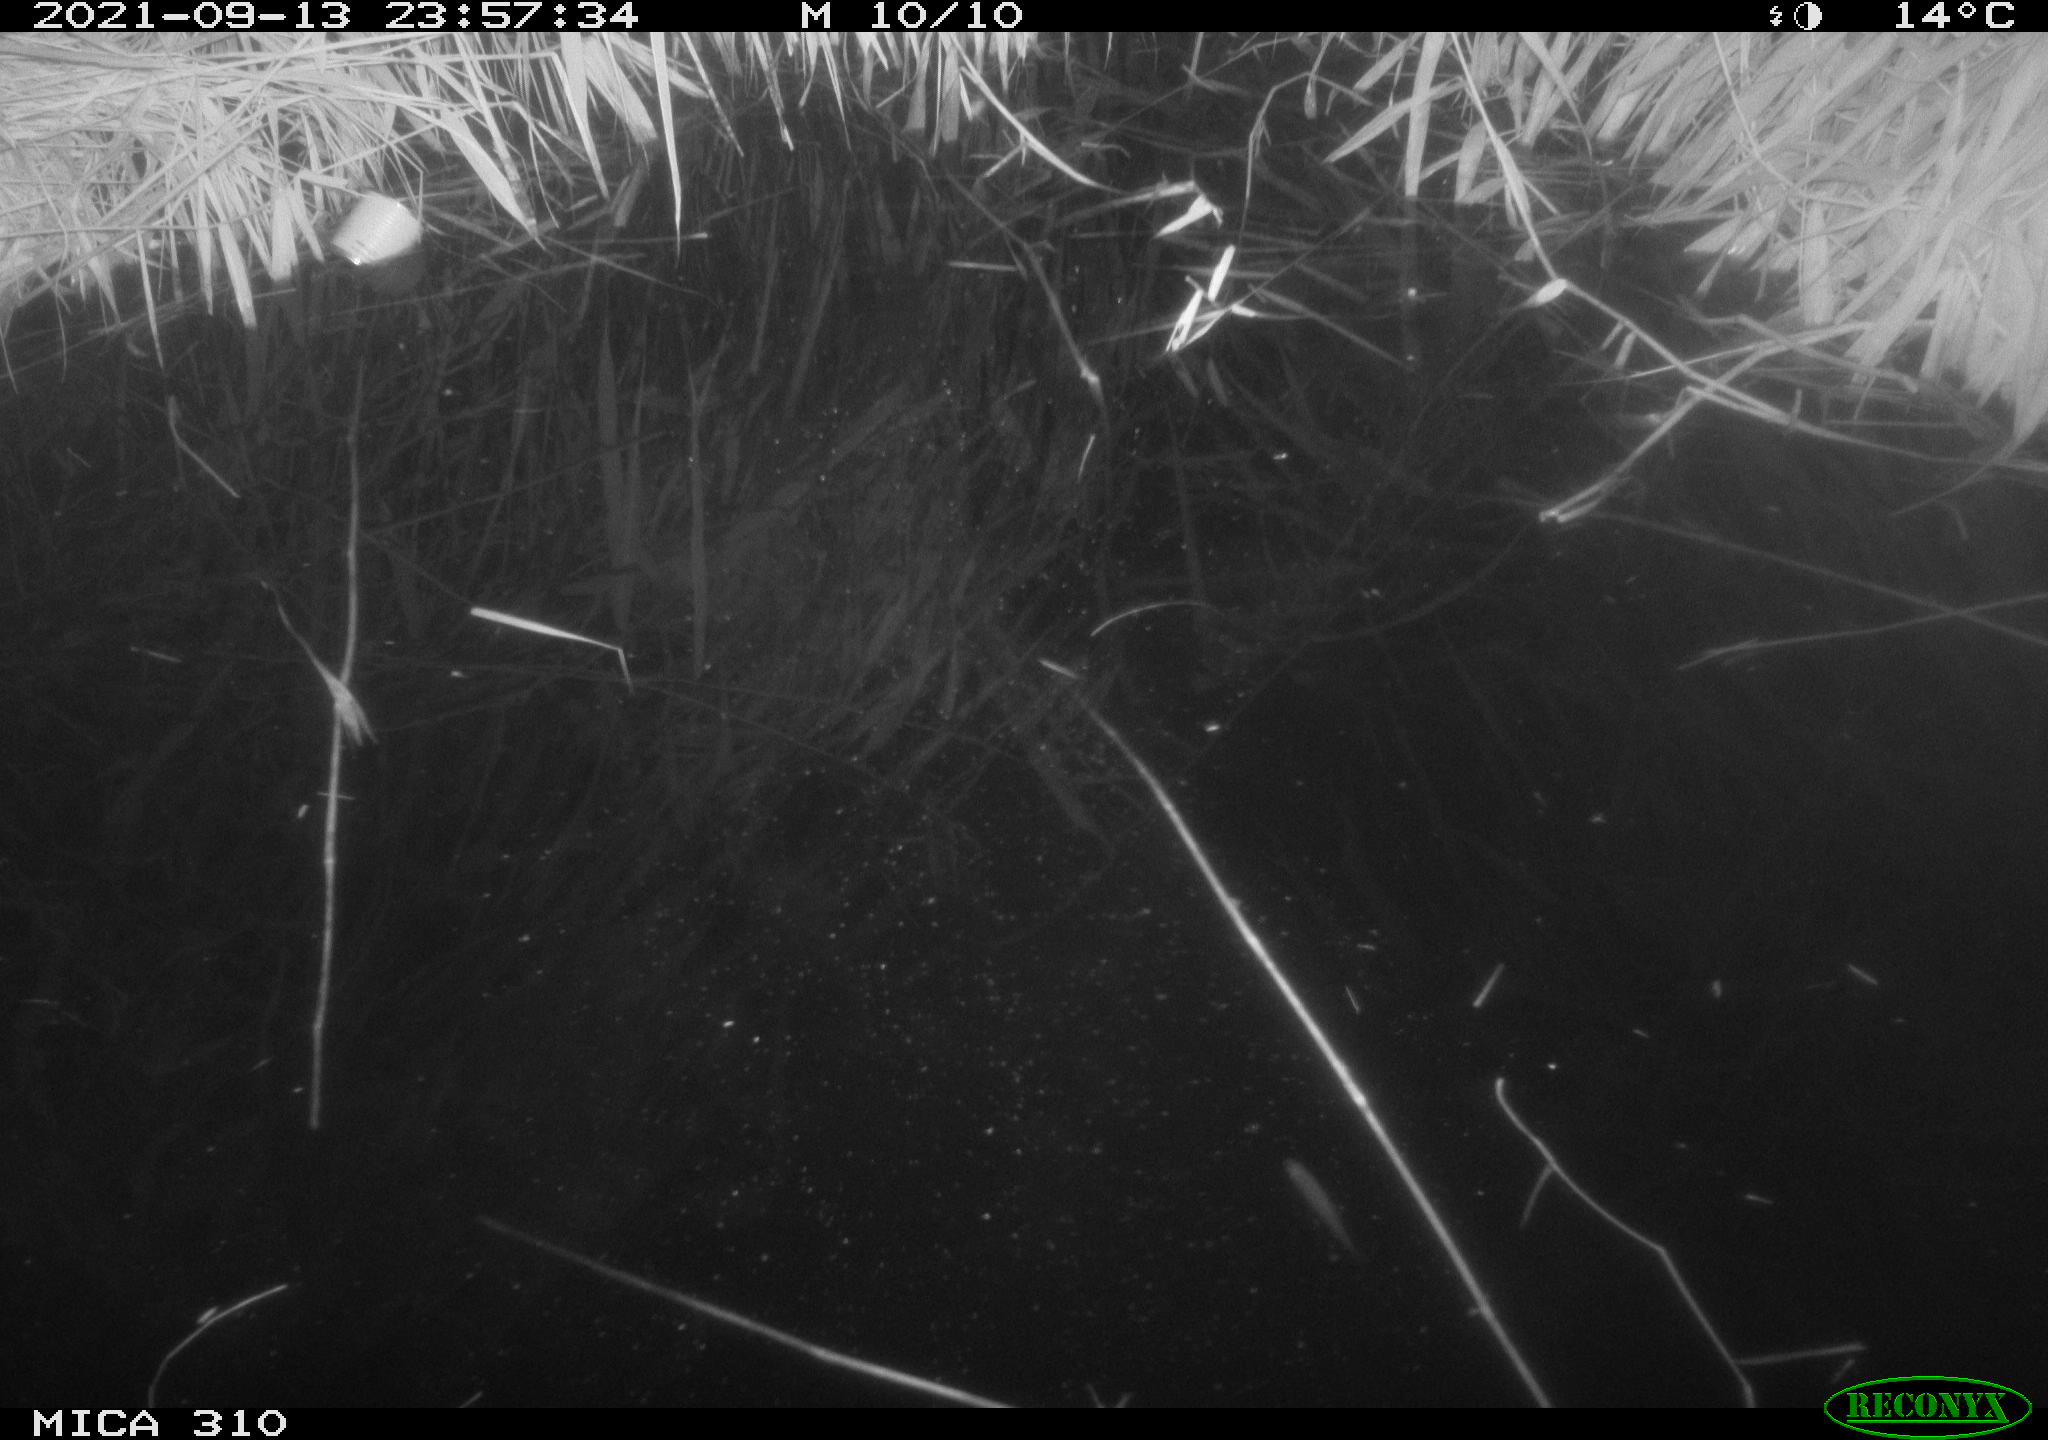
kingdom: Animalia
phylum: Chordata
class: Aves
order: Anseriformes
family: Anatidae
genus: Mareca
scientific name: Mareca strepera
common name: Gadwall
